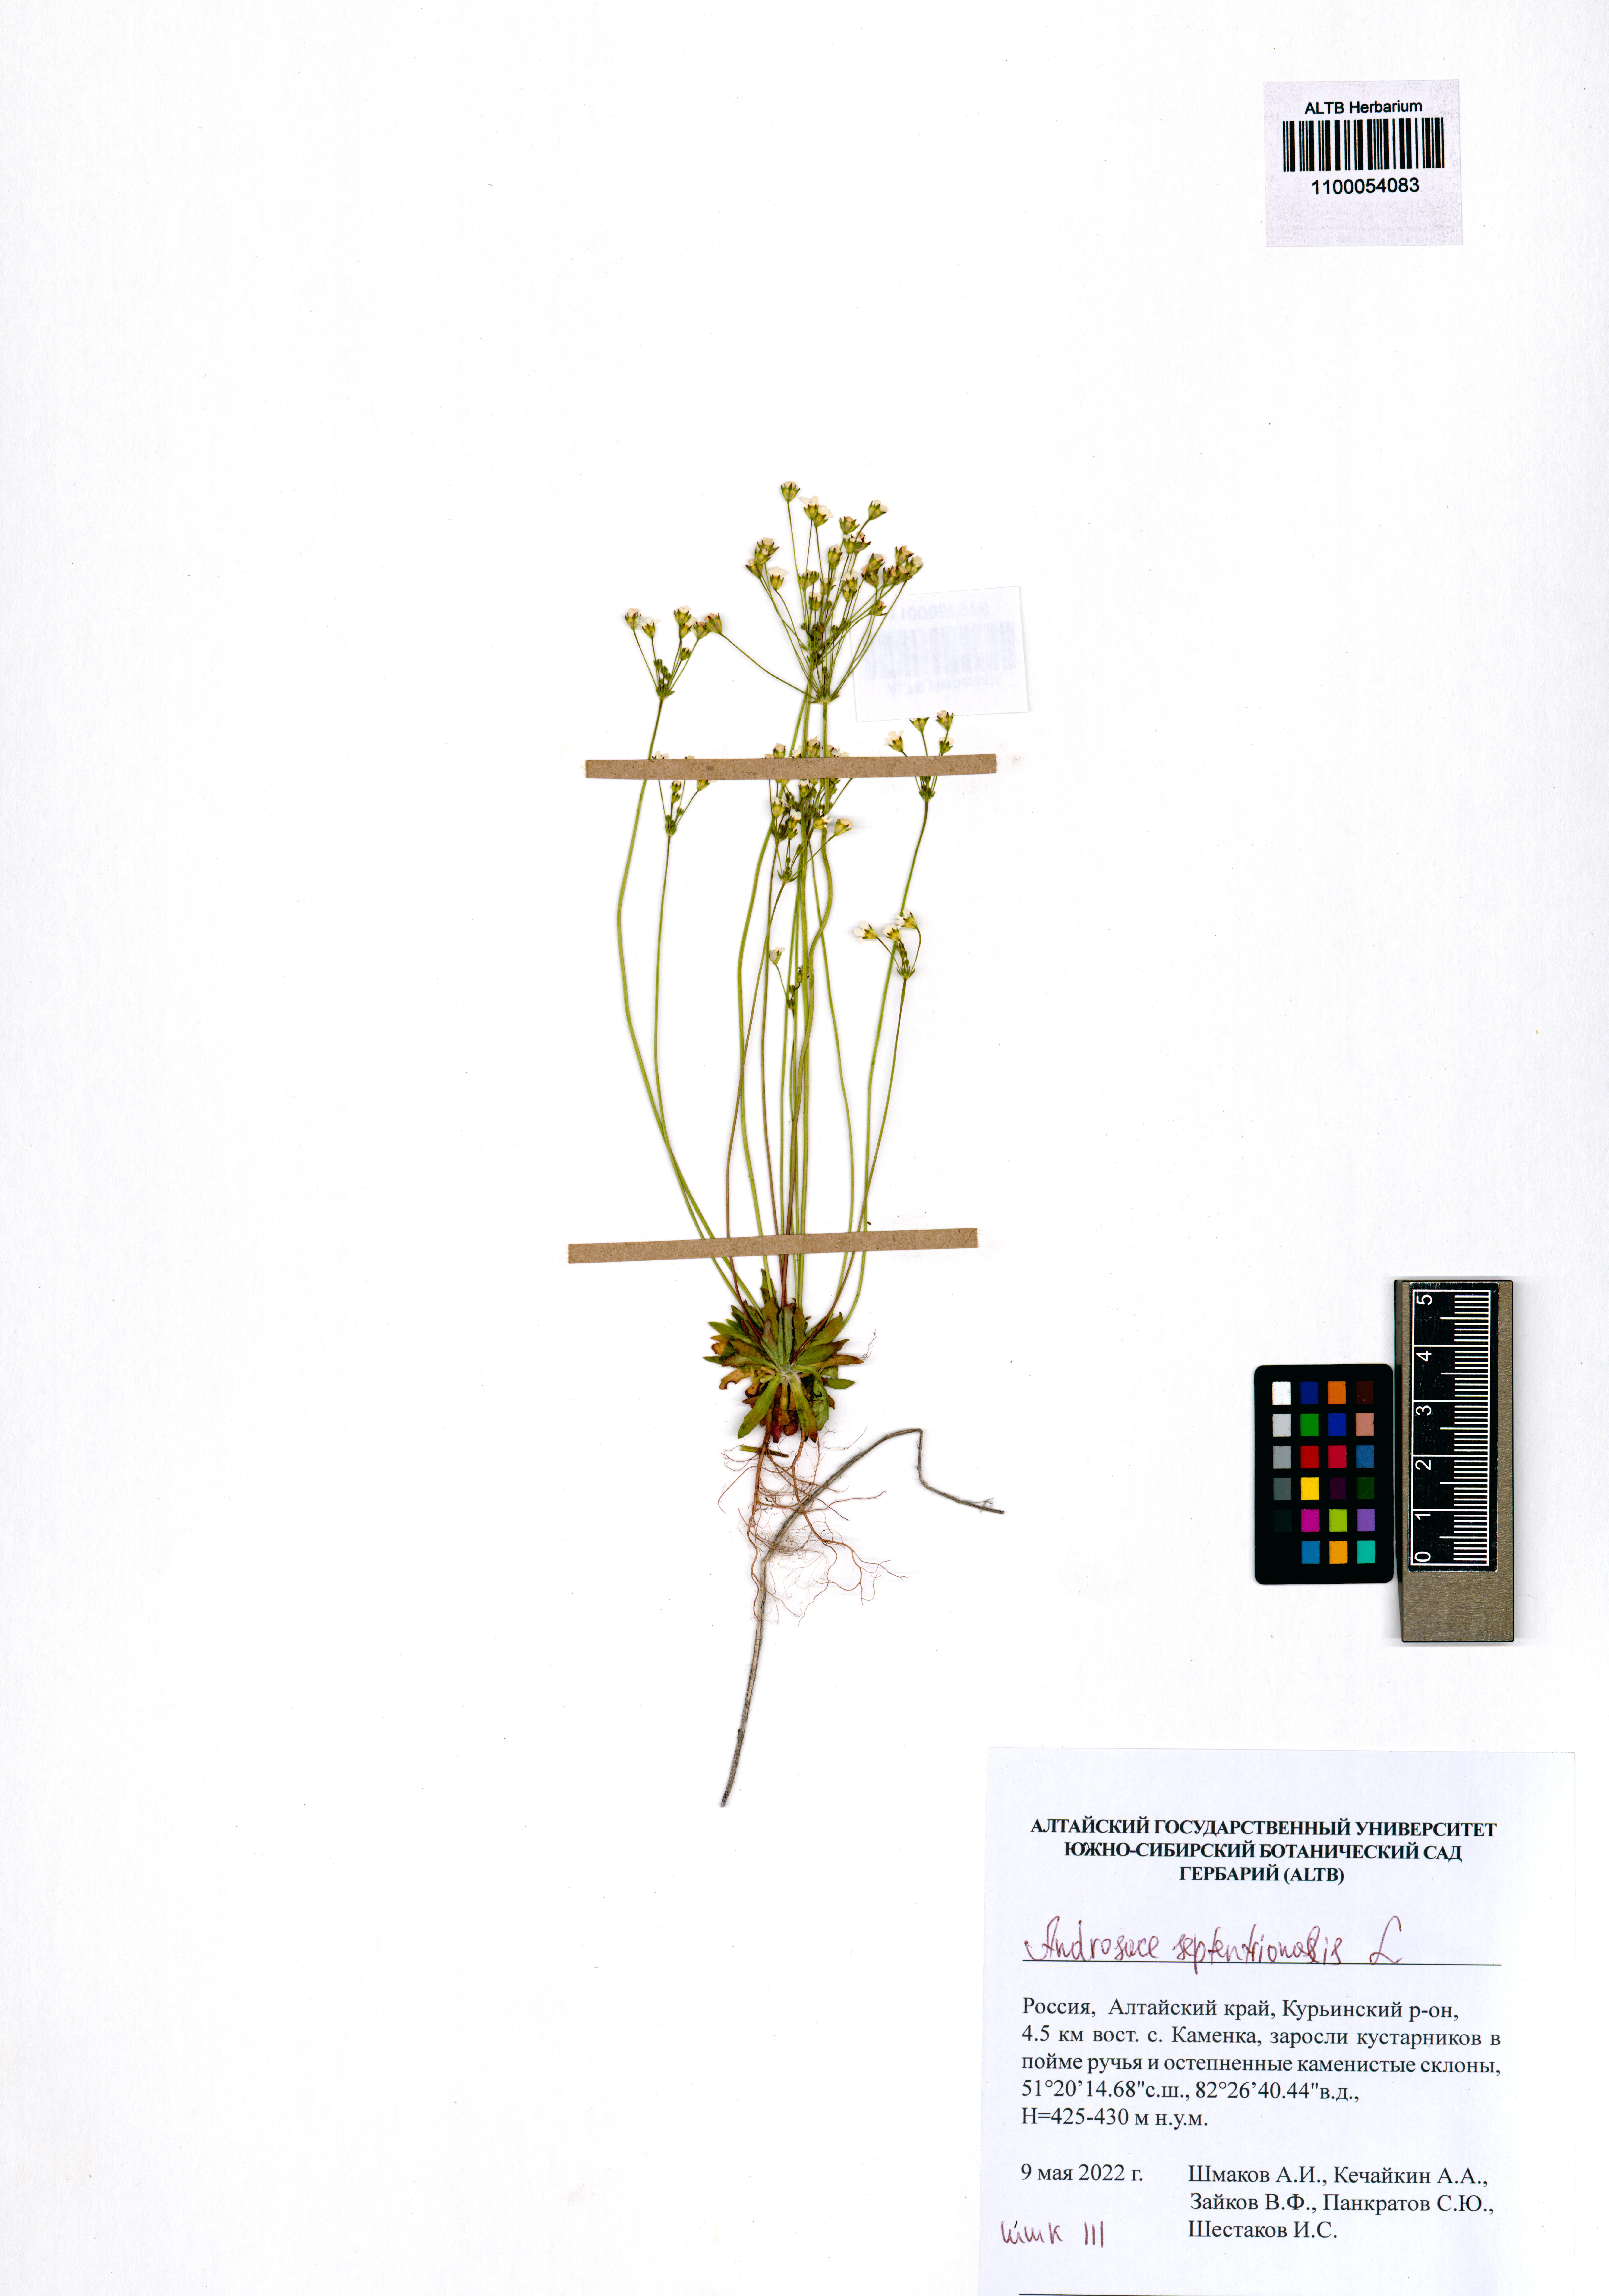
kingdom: Plantae
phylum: Tracheophyta
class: Magnoliopsida
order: Ericales
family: Primulaceae
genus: Androsace
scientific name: Androsace septentrionalis
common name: Hairy northern fairy-candelabra
